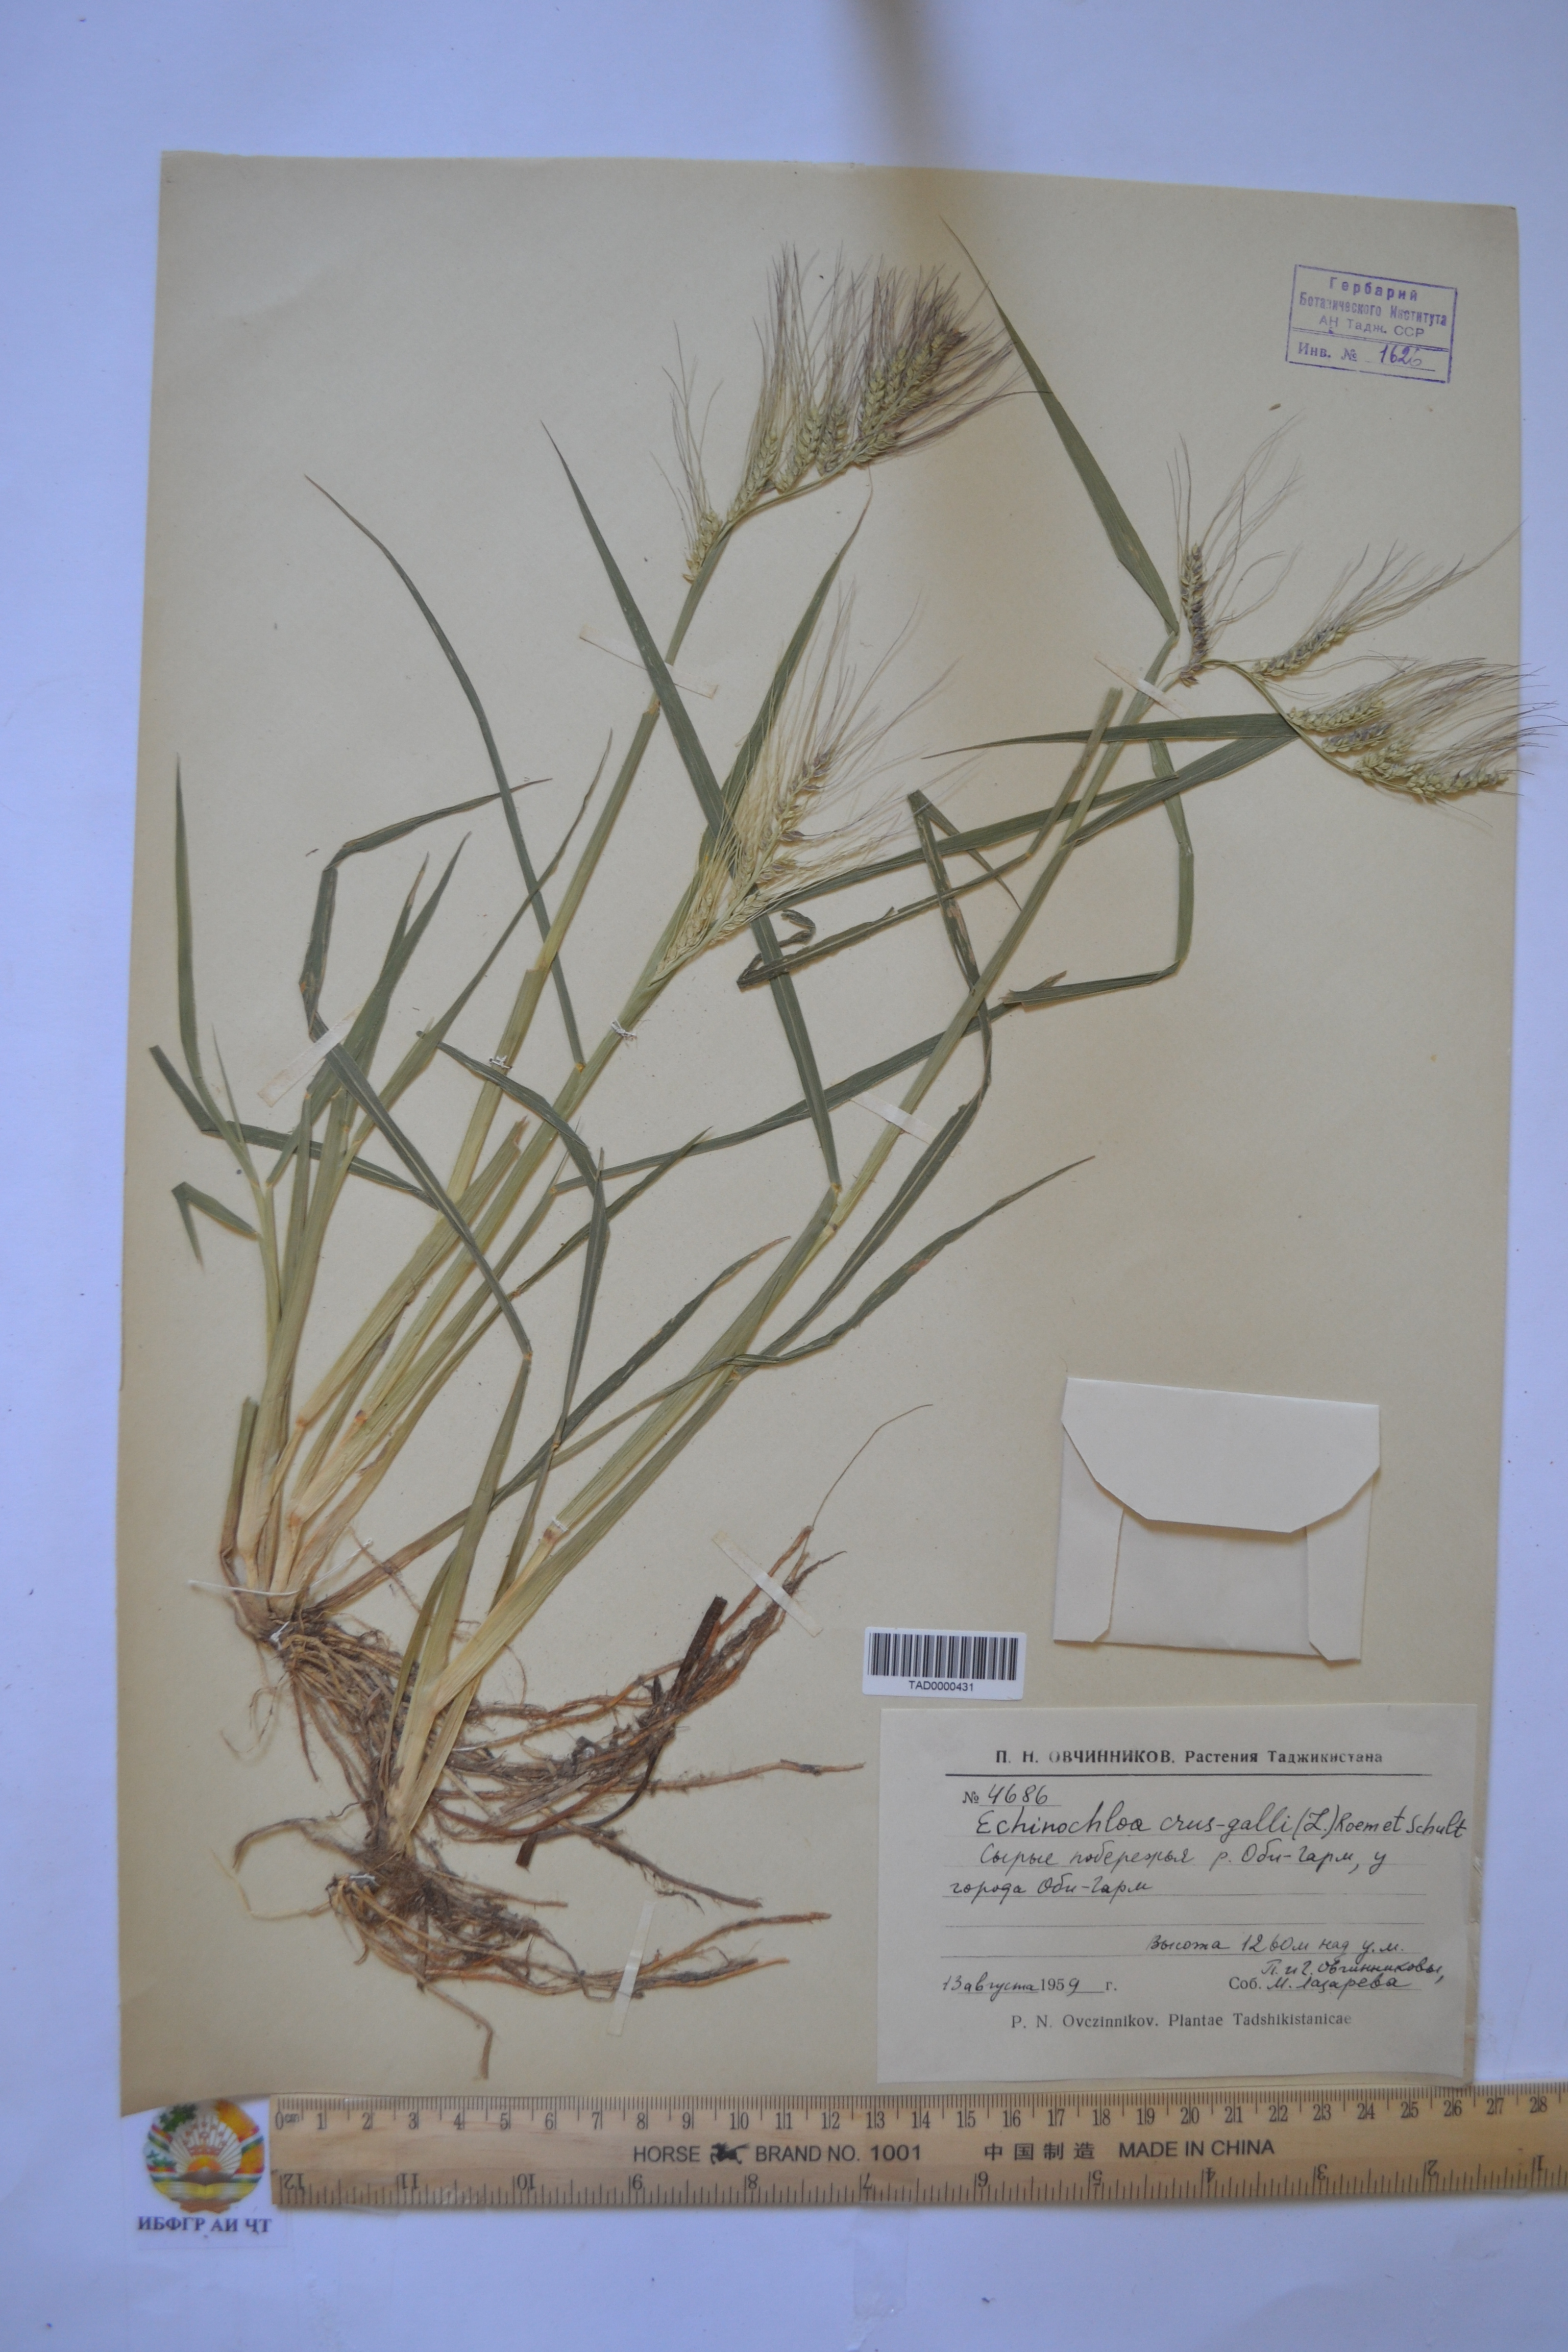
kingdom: Plantae
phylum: Tracheophyta
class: Liliopsida
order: Poales
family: Poaceae
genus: Echinochloa
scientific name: Echinochloa crus-galli
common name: Cockspur
